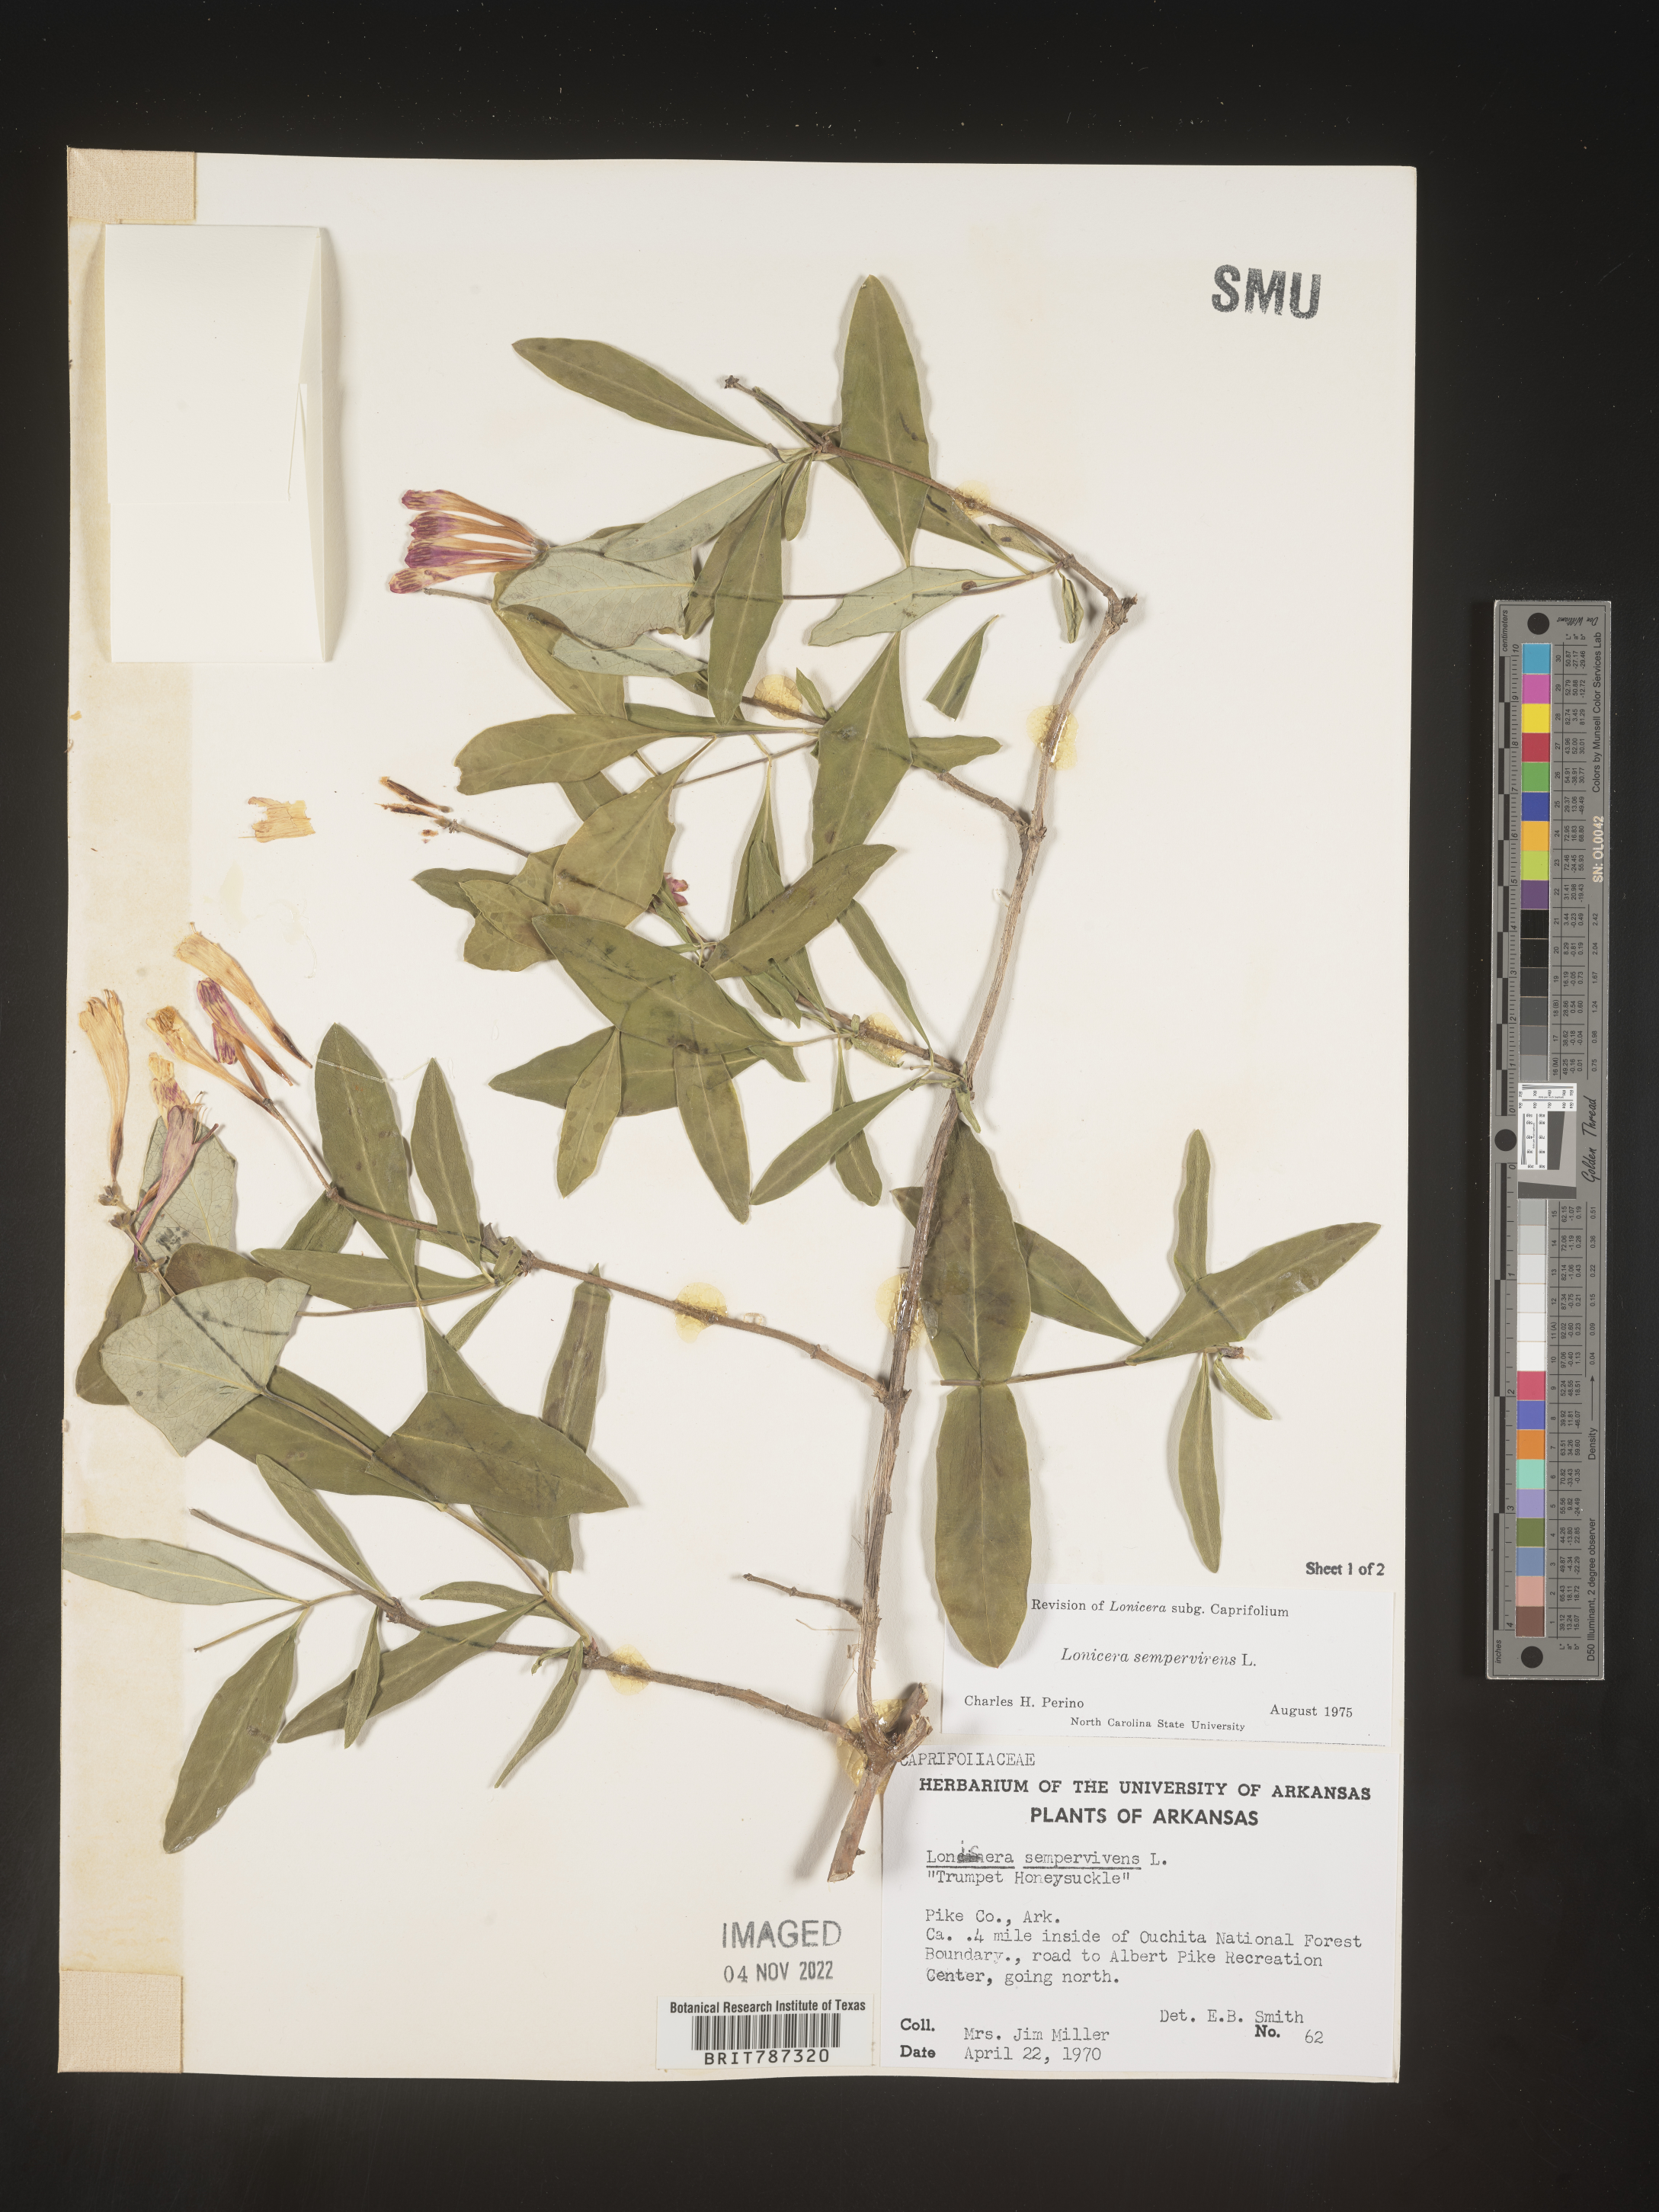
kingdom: Plantae
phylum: Tracheophyta
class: Magnoliopsida
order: Dipsacales
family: Caprifoliaceae
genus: Lonicera
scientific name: Lonicera sempervirens
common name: Coral honeysuckle
